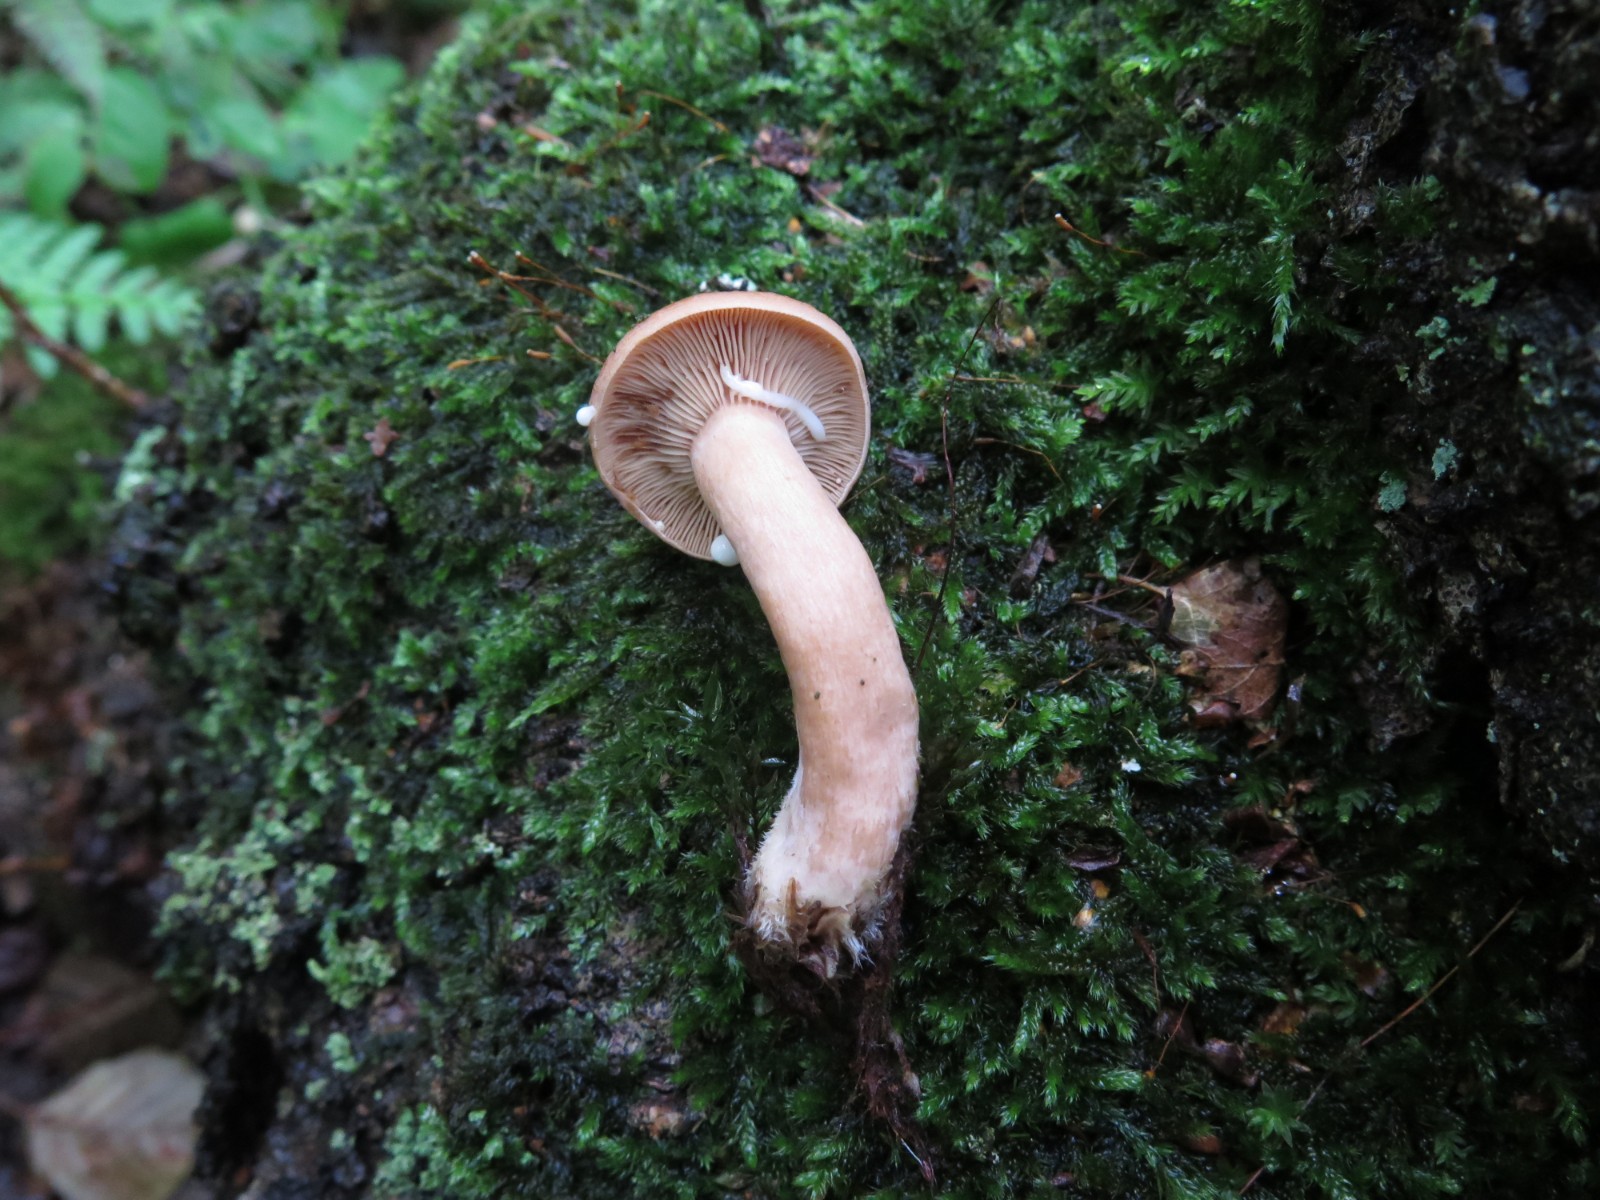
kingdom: Fungi
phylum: Basidiomycota
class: Agaricomycetes
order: Russulales
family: Russulaceae
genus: Lactarius
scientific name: Lactarius tabidus
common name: rynket mælkehat
